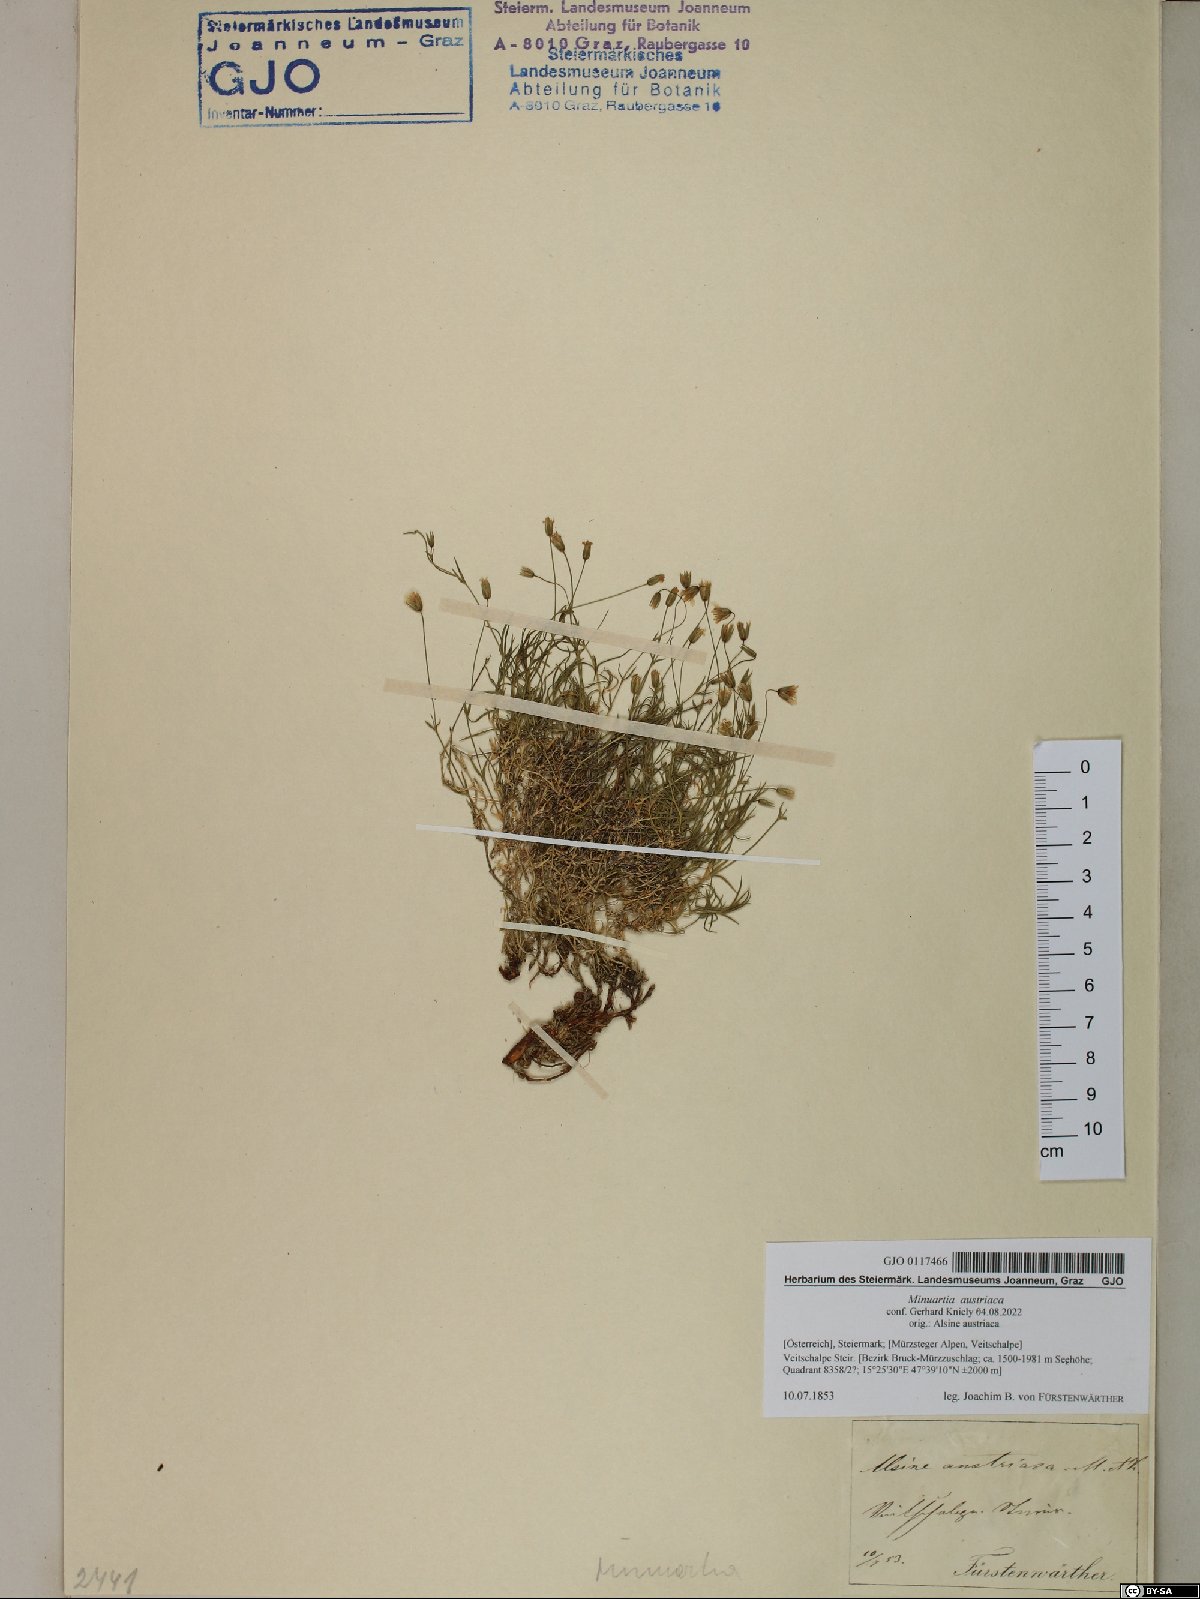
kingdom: Plantae
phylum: Tracheophyta
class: Magnoliopsida
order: Caryophyllales
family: Caryophyllaceae
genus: Sabulina
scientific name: Sabulina austriaca
